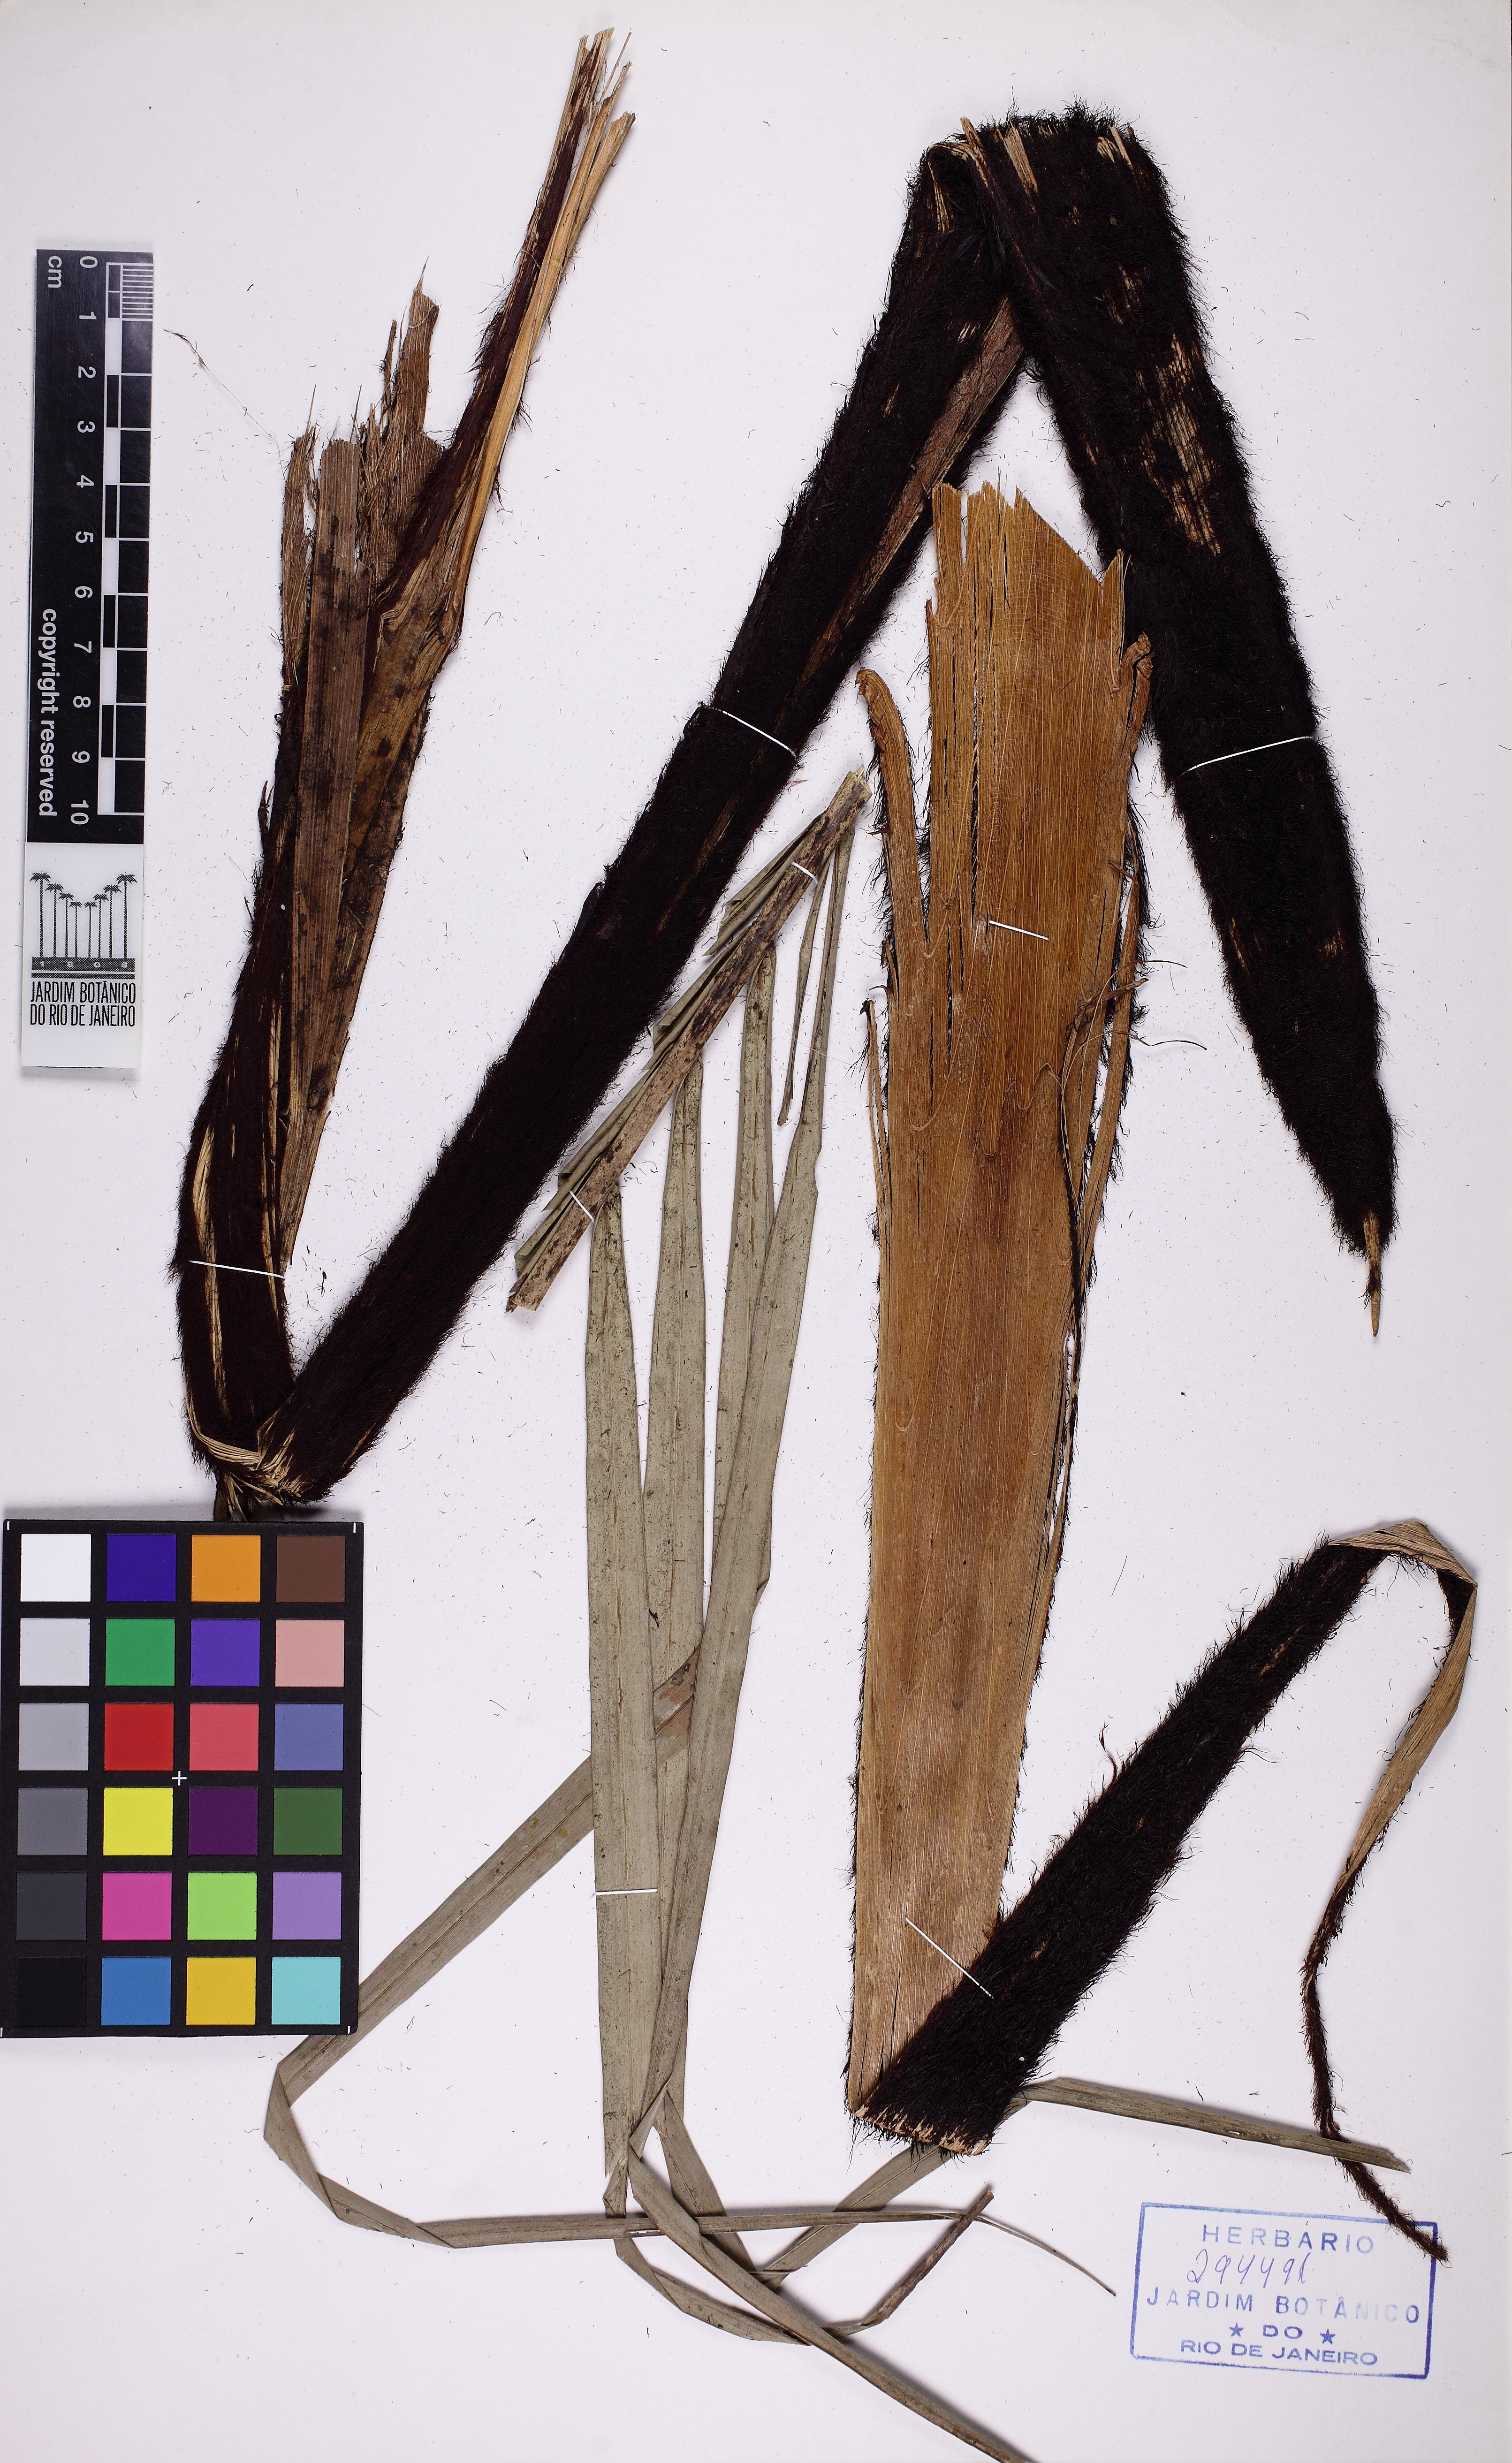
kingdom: Plantae
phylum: Tracheophyta
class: Liliopsida
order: Arecales
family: Arecaceae
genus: Syagrus
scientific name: Syagrus insignis
